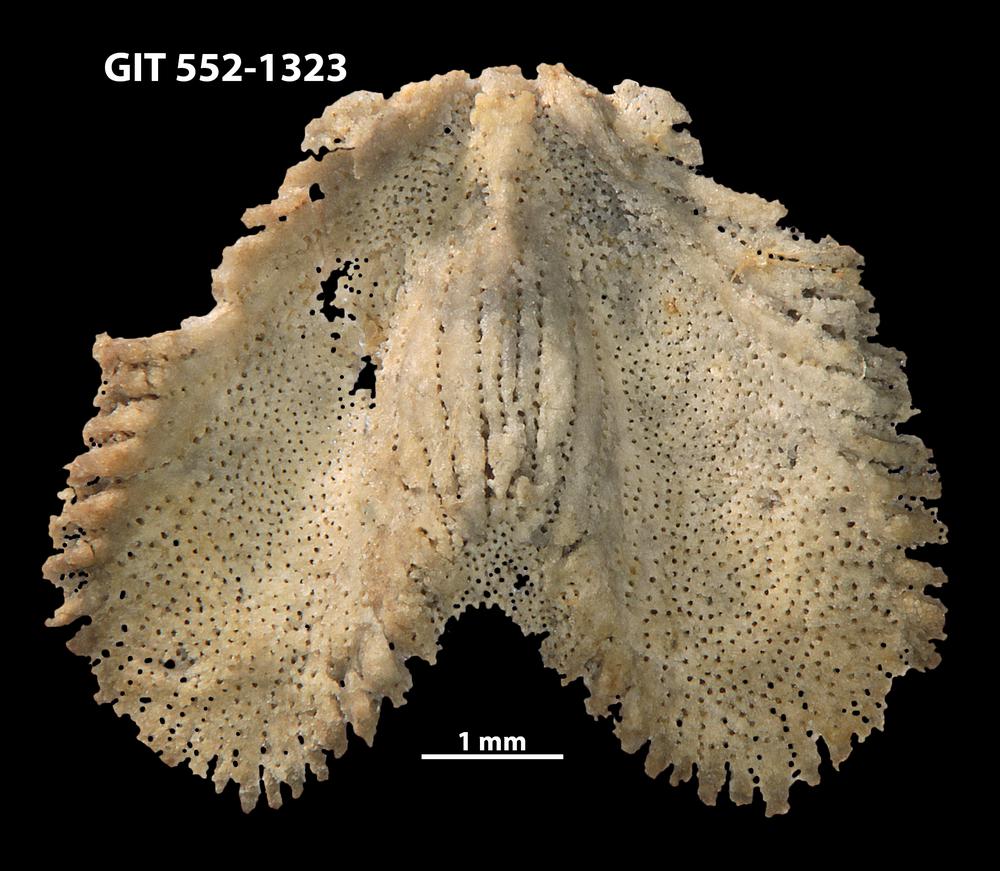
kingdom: Animalia
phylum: Brachiopoda
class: Rhynchonellata
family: Dicoelosiidae
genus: Dicoelosia
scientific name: Dicoelosia paralata
